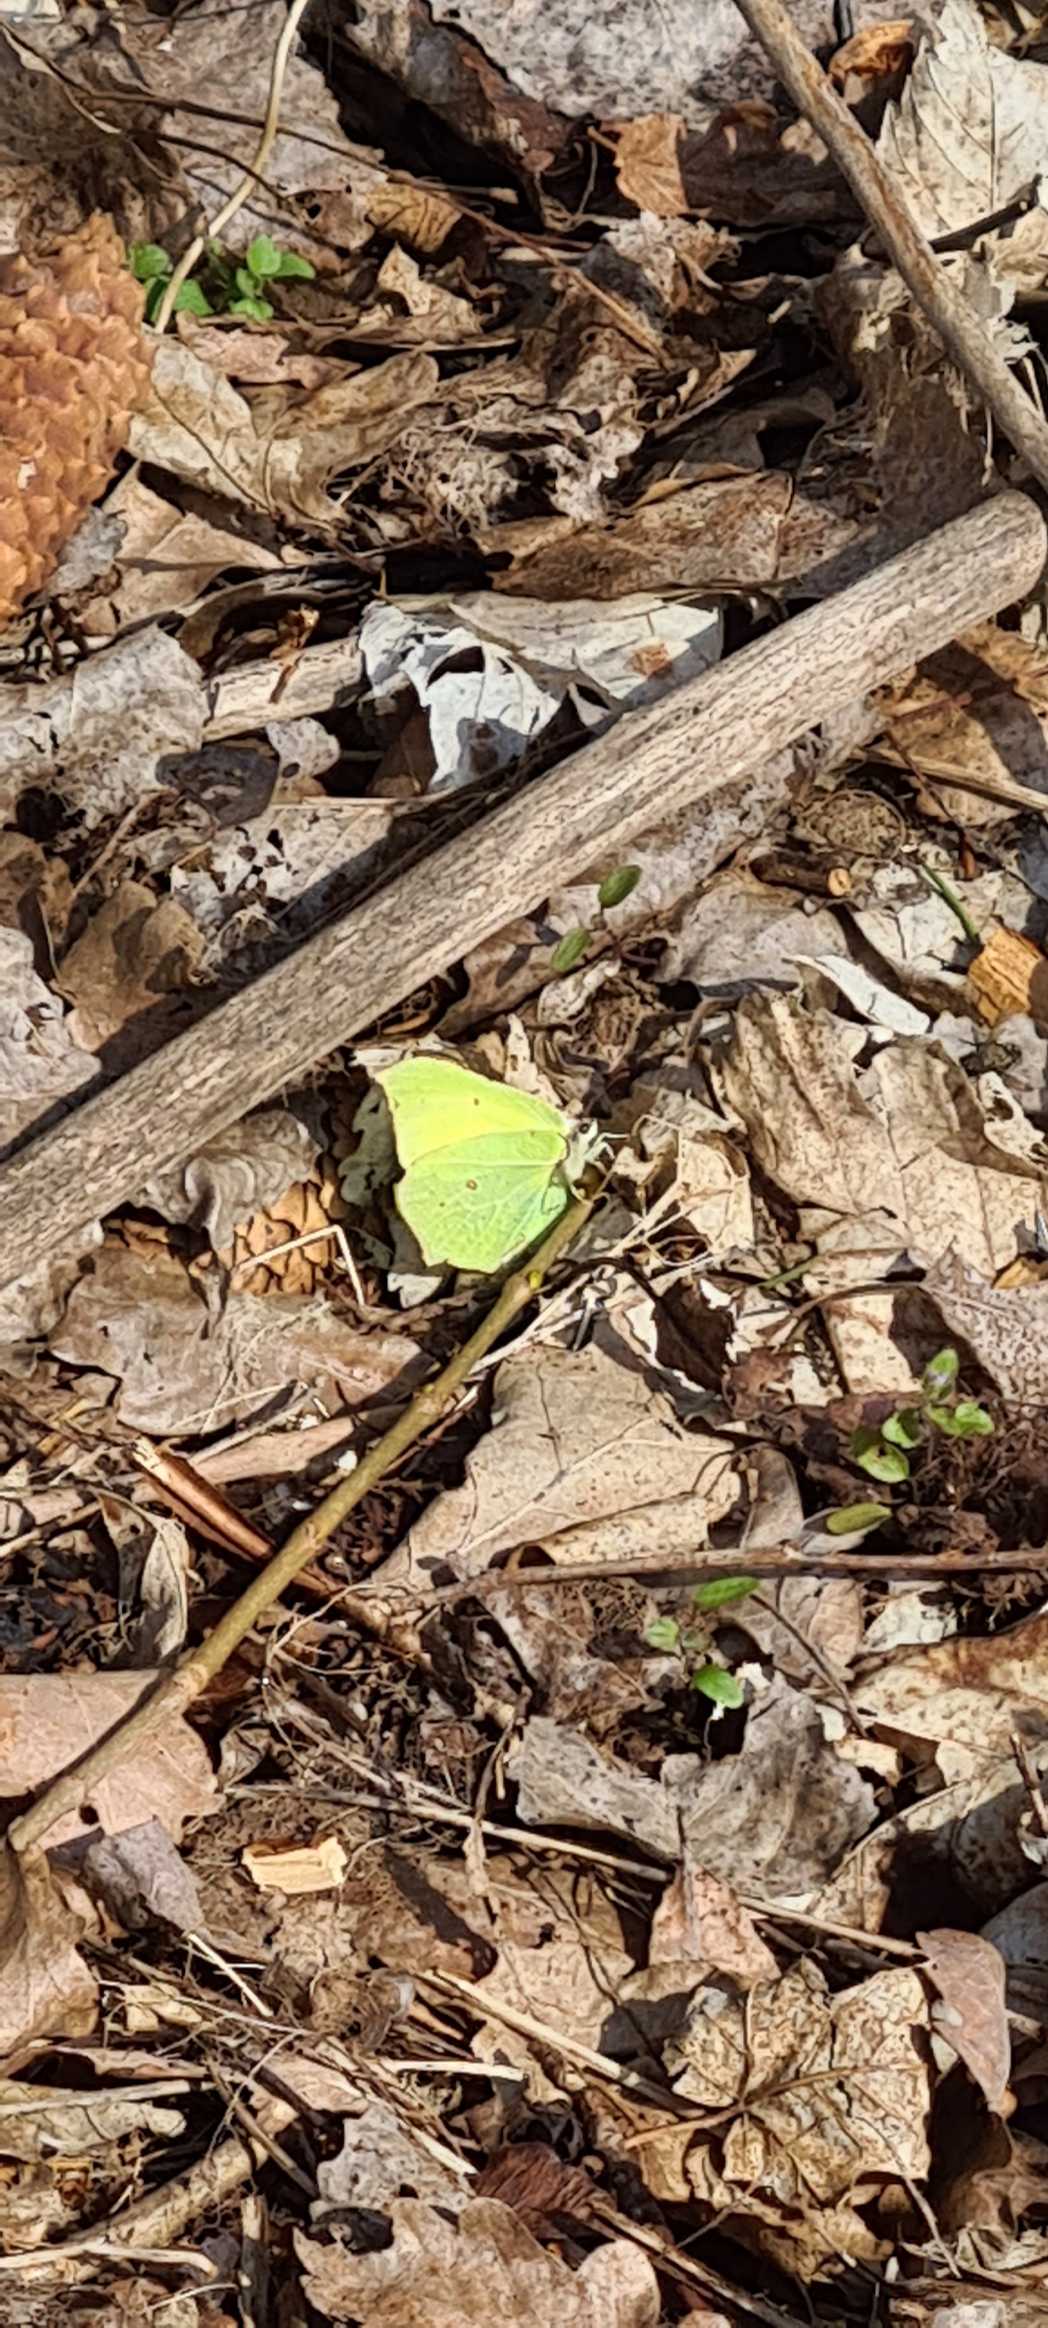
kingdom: Animalia
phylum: Arthropoda
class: Insecta
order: Lepidoptera
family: Pieridae
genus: Gonepteryx
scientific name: Gonepteryx rhamni
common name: Citronsommerfugl
